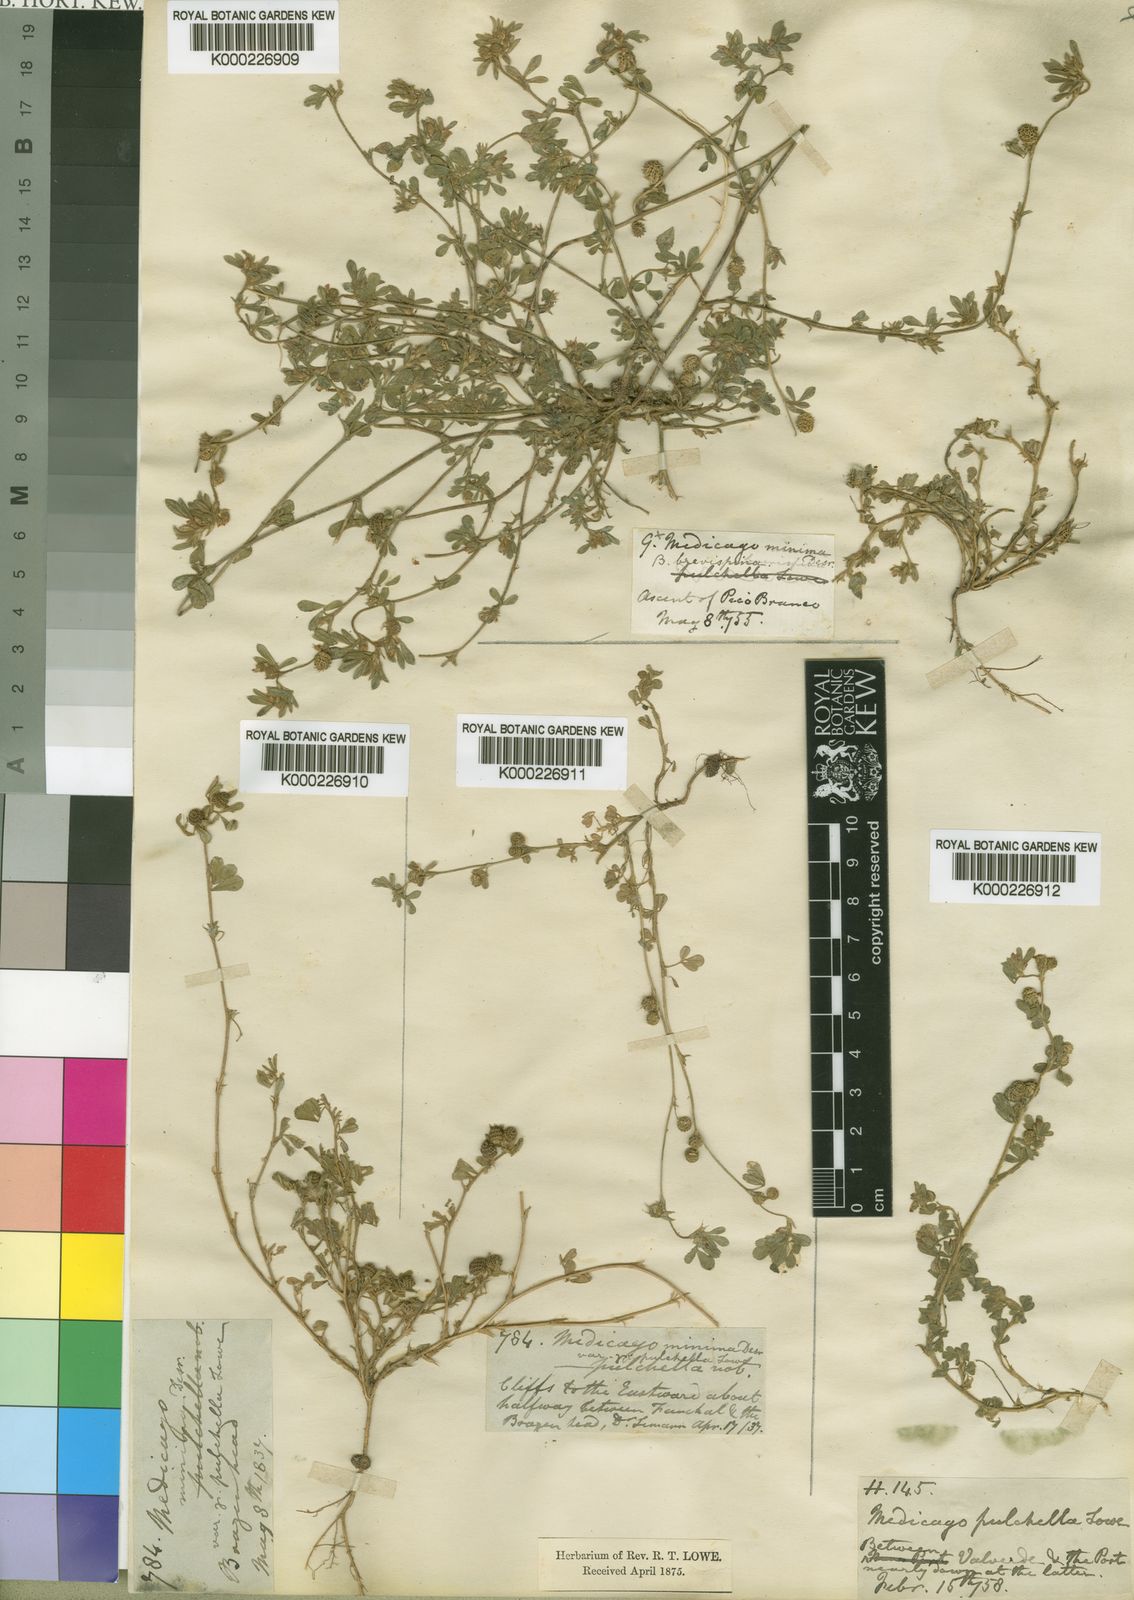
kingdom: Plantae
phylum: Tracheophyta
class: Magnoliopsida
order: Fabales
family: Fabaceae
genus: Medicago
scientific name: Medicago minima
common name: Little bur-clover
